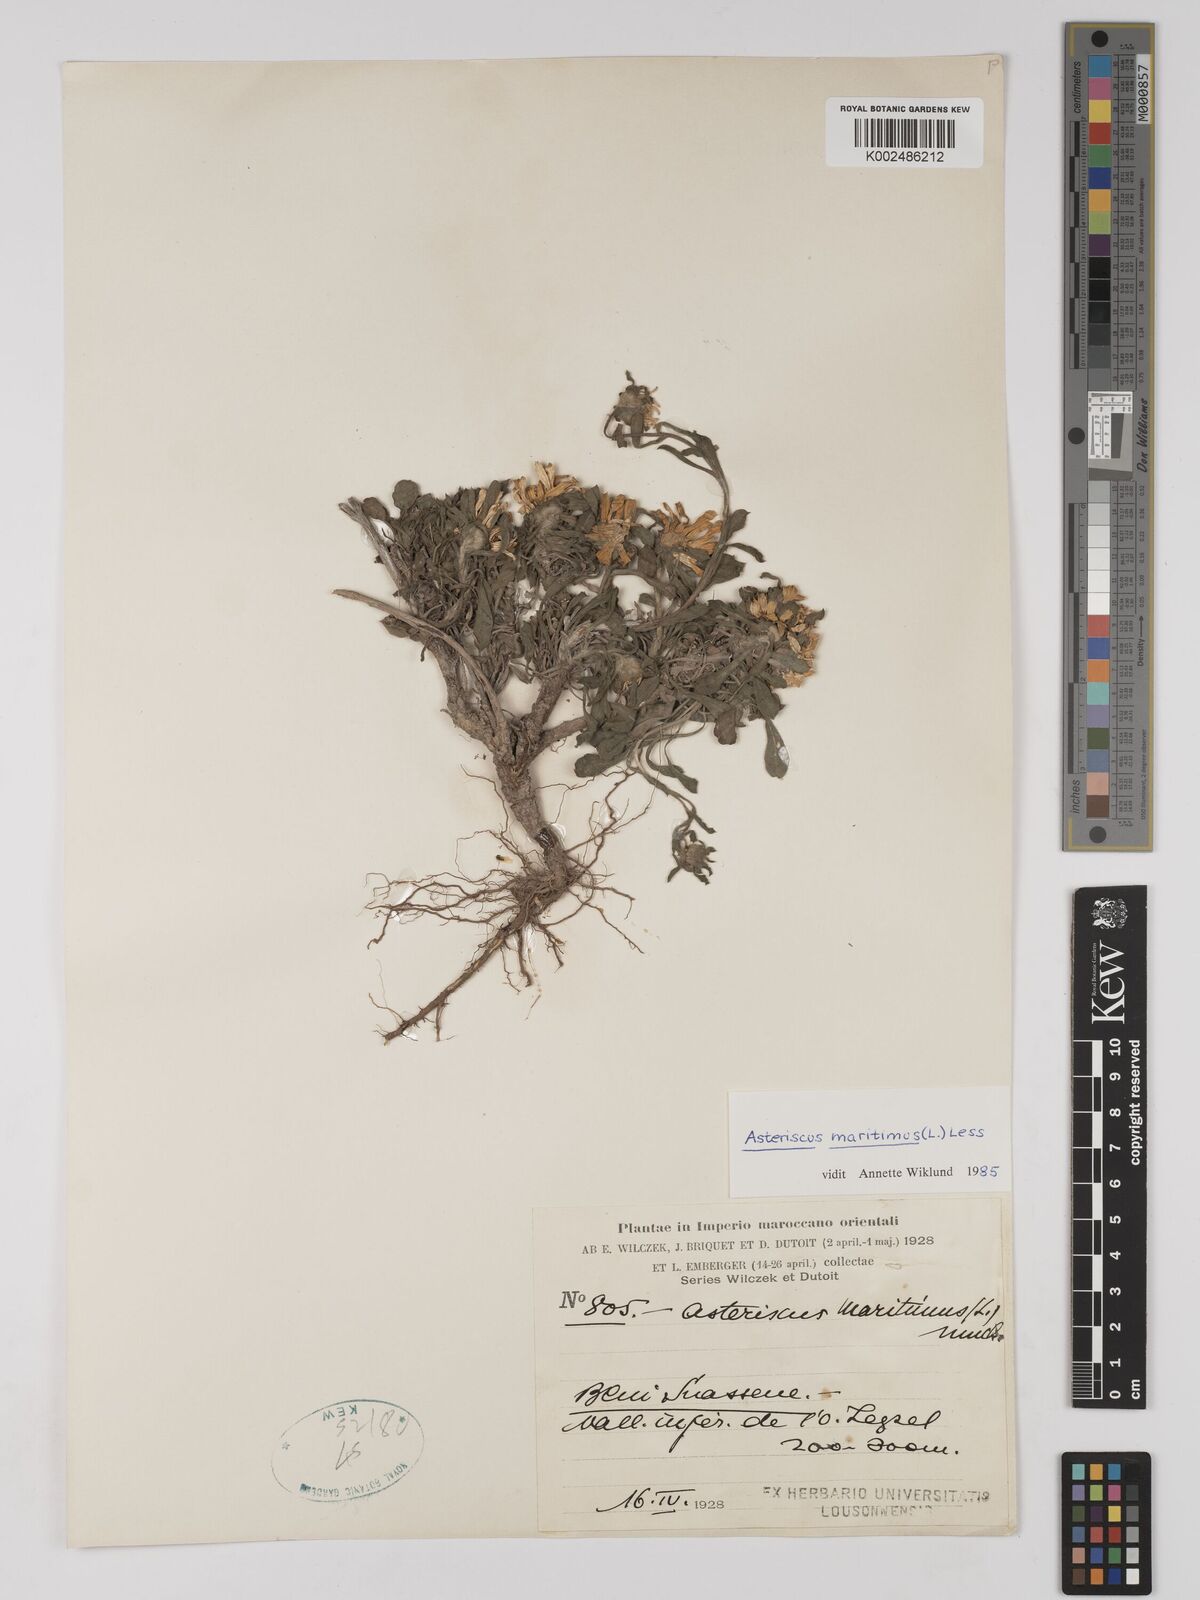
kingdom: Plantae
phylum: Tracheophyta
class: Magnoliopsida
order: Asterales
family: Asteraceae
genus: Pallenis
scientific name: Pallenis maritima
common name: Golden coin daisy
